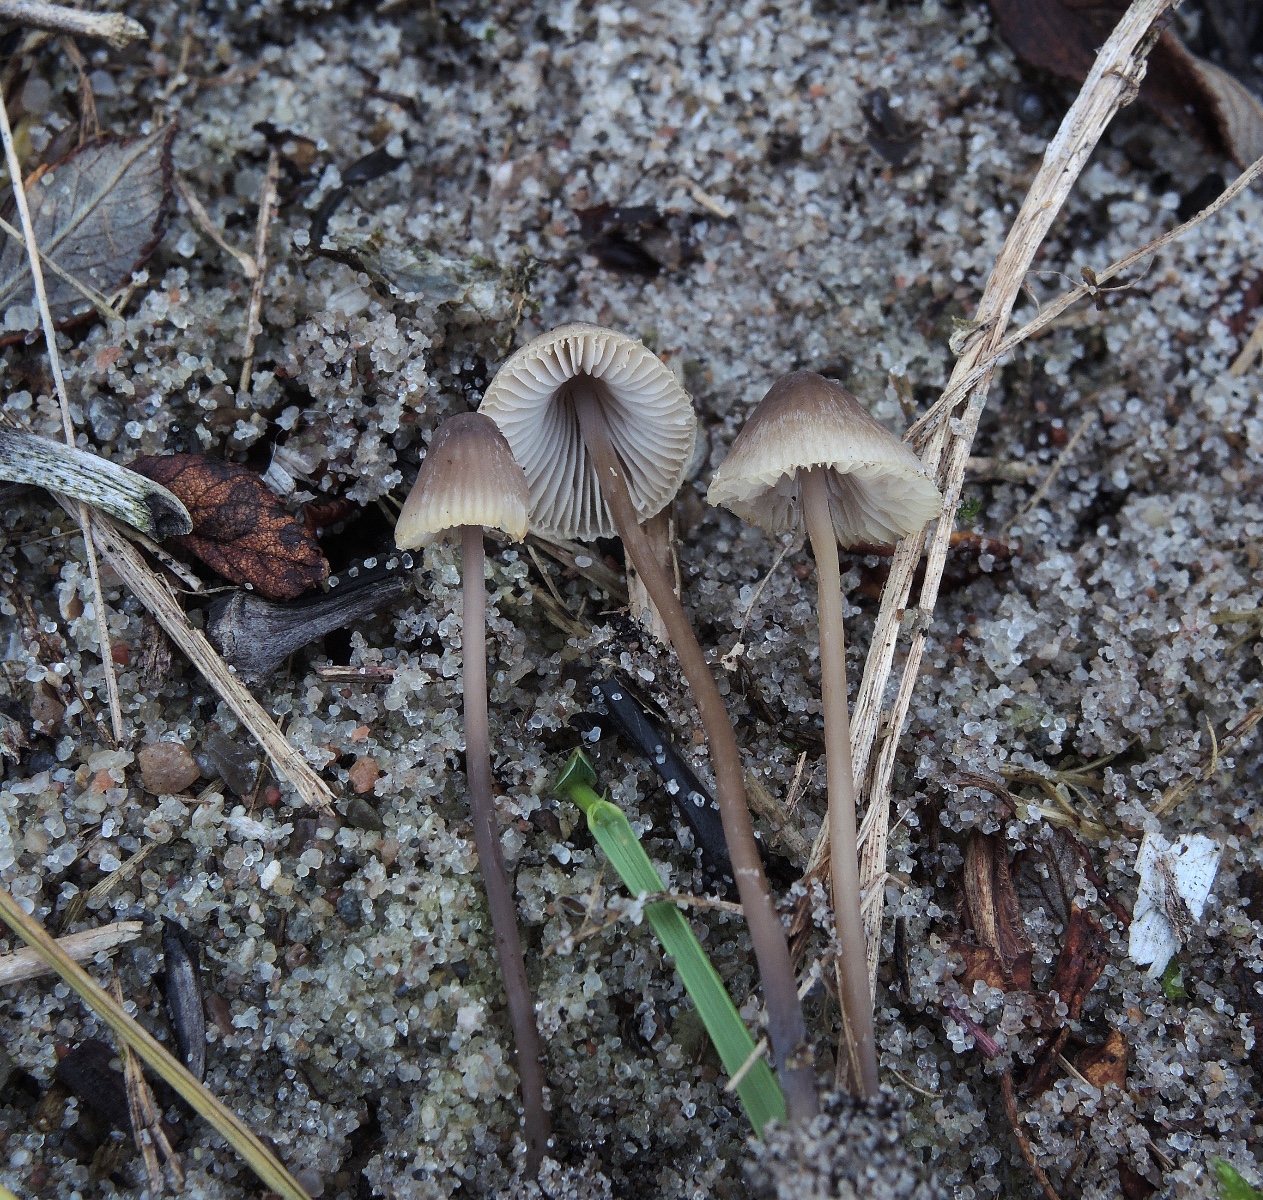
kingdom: Fungi
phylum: Basidiomycota
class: Agaricomycetes
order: Agaricales
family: Mycenaceae
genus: Mycena
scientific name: Mycena
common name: huesvamp
